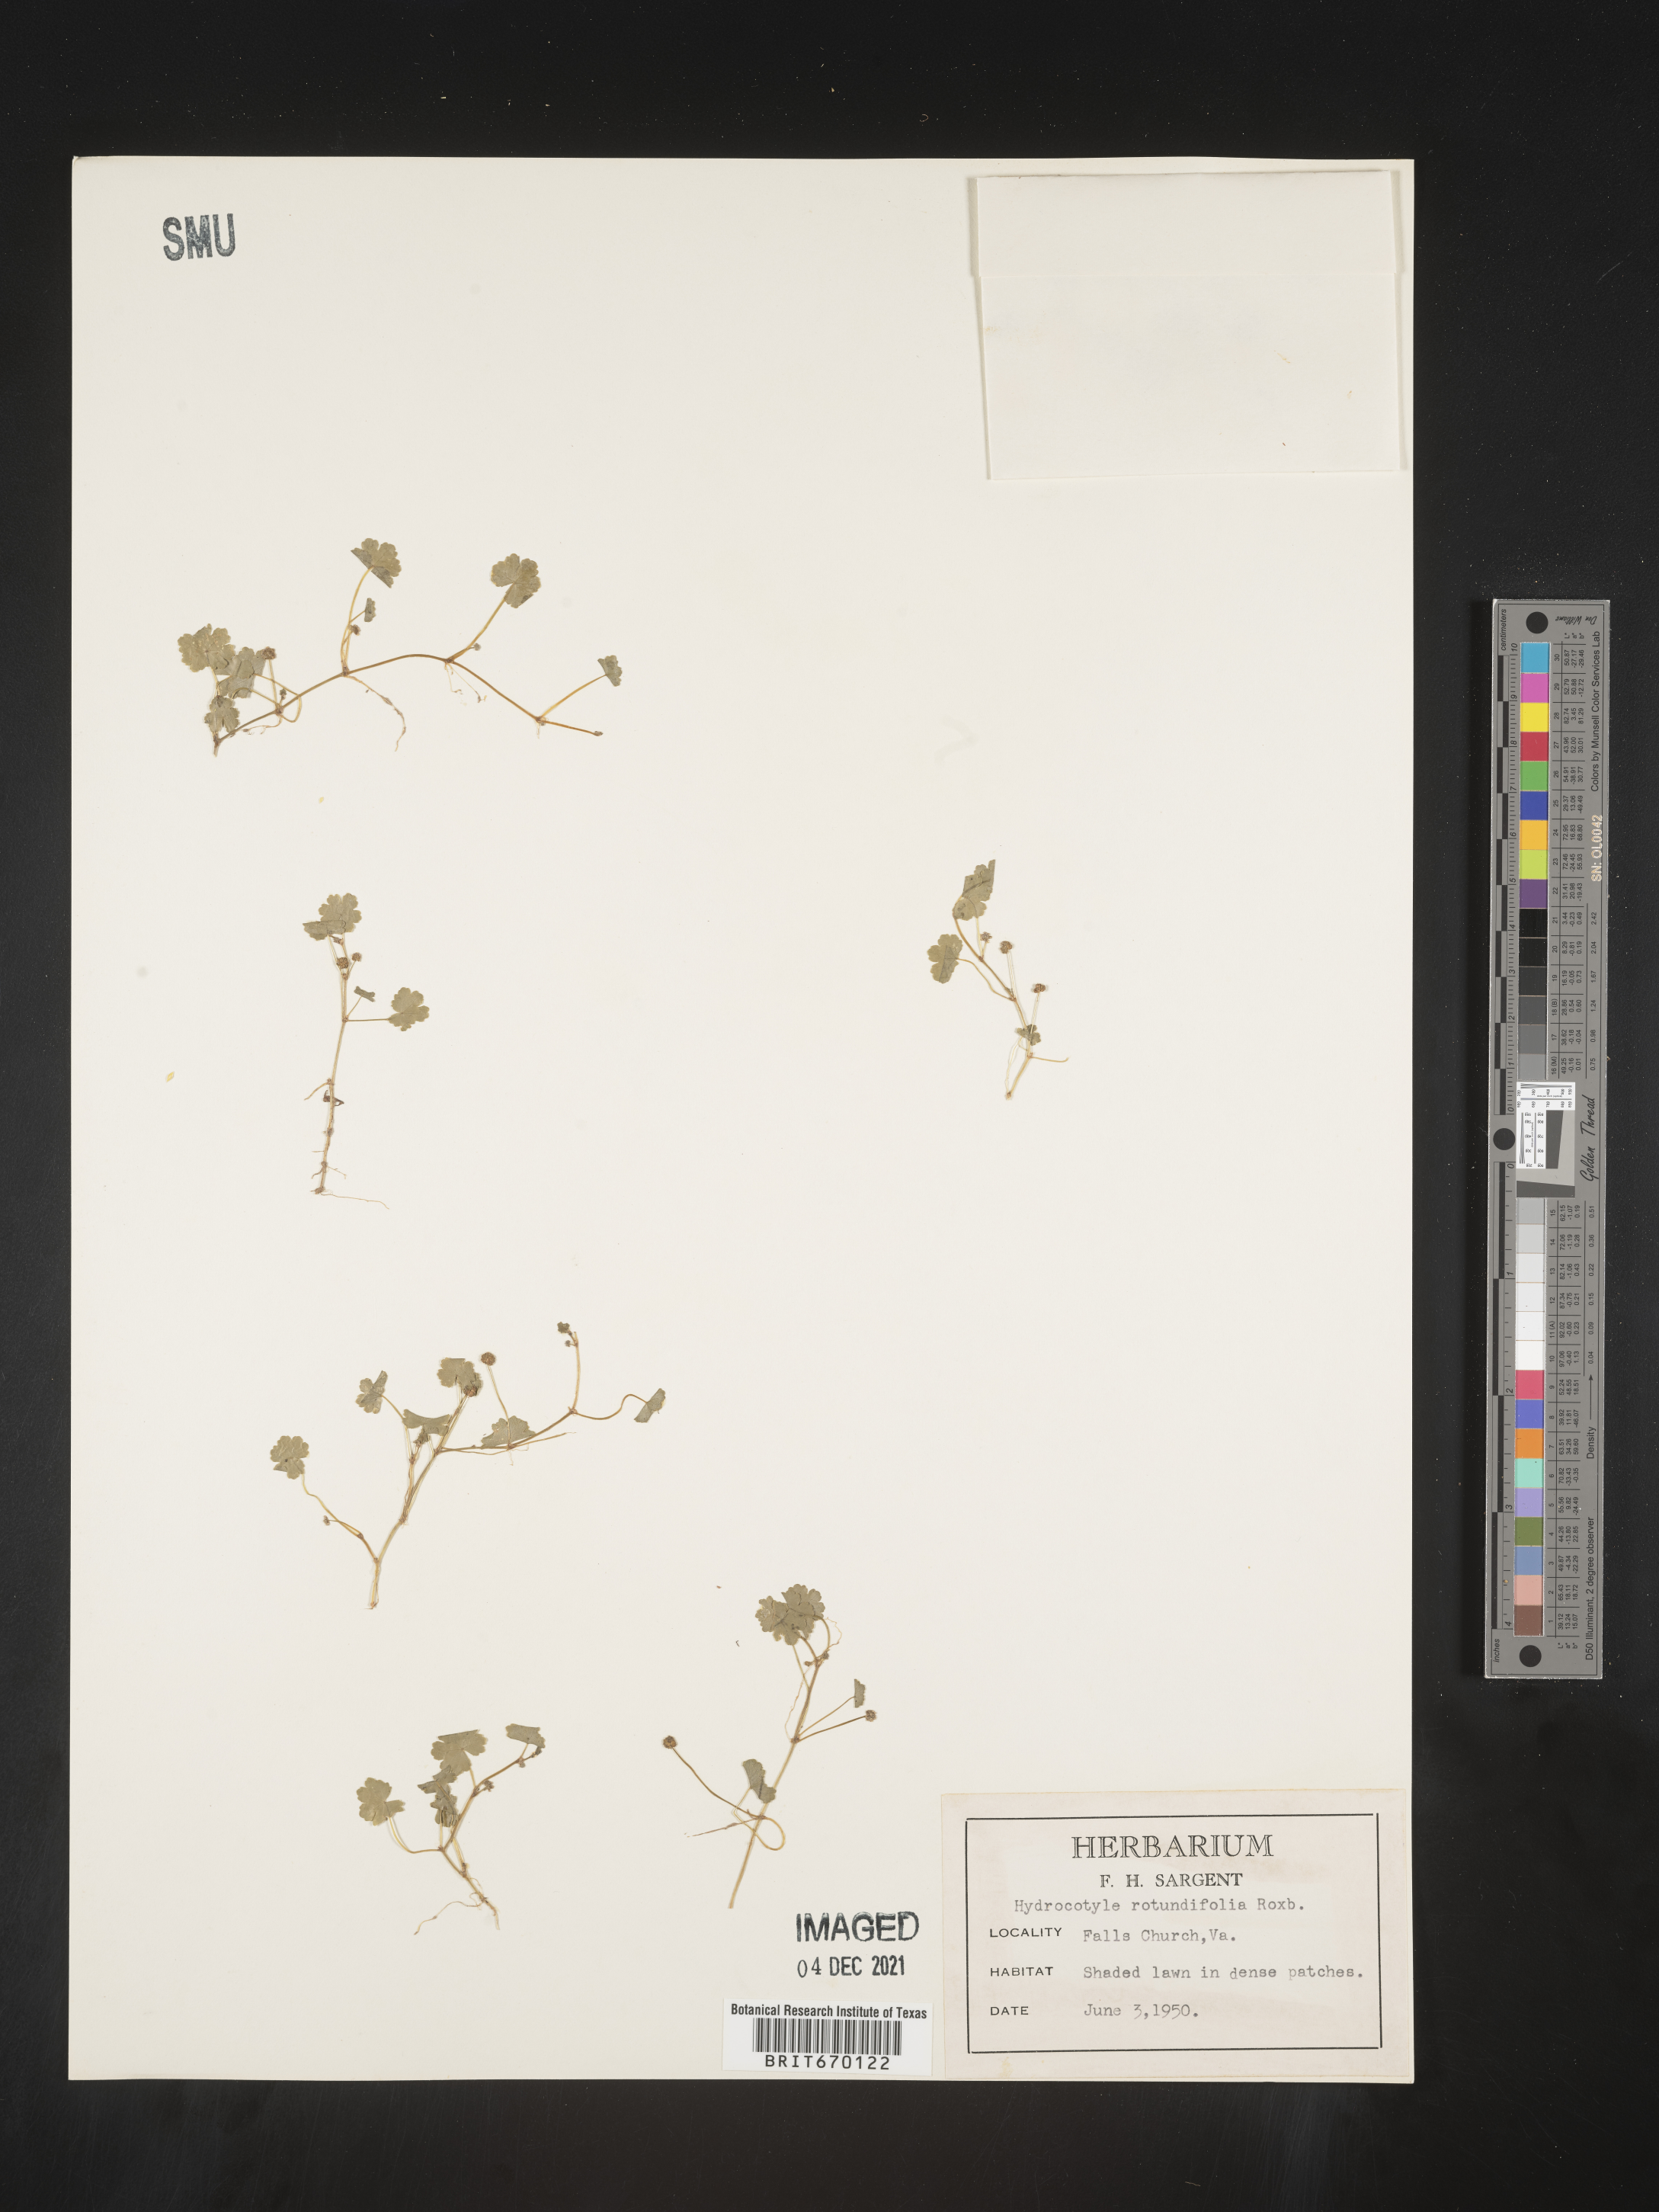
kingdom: Plantae
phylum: Tracheophyta
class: Magnoliopsida
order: Apiales
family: Araliaceae
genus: Hydrocotyle
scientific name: Hydrocotyle sibthorpioides
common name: Lawn marshpennywort
